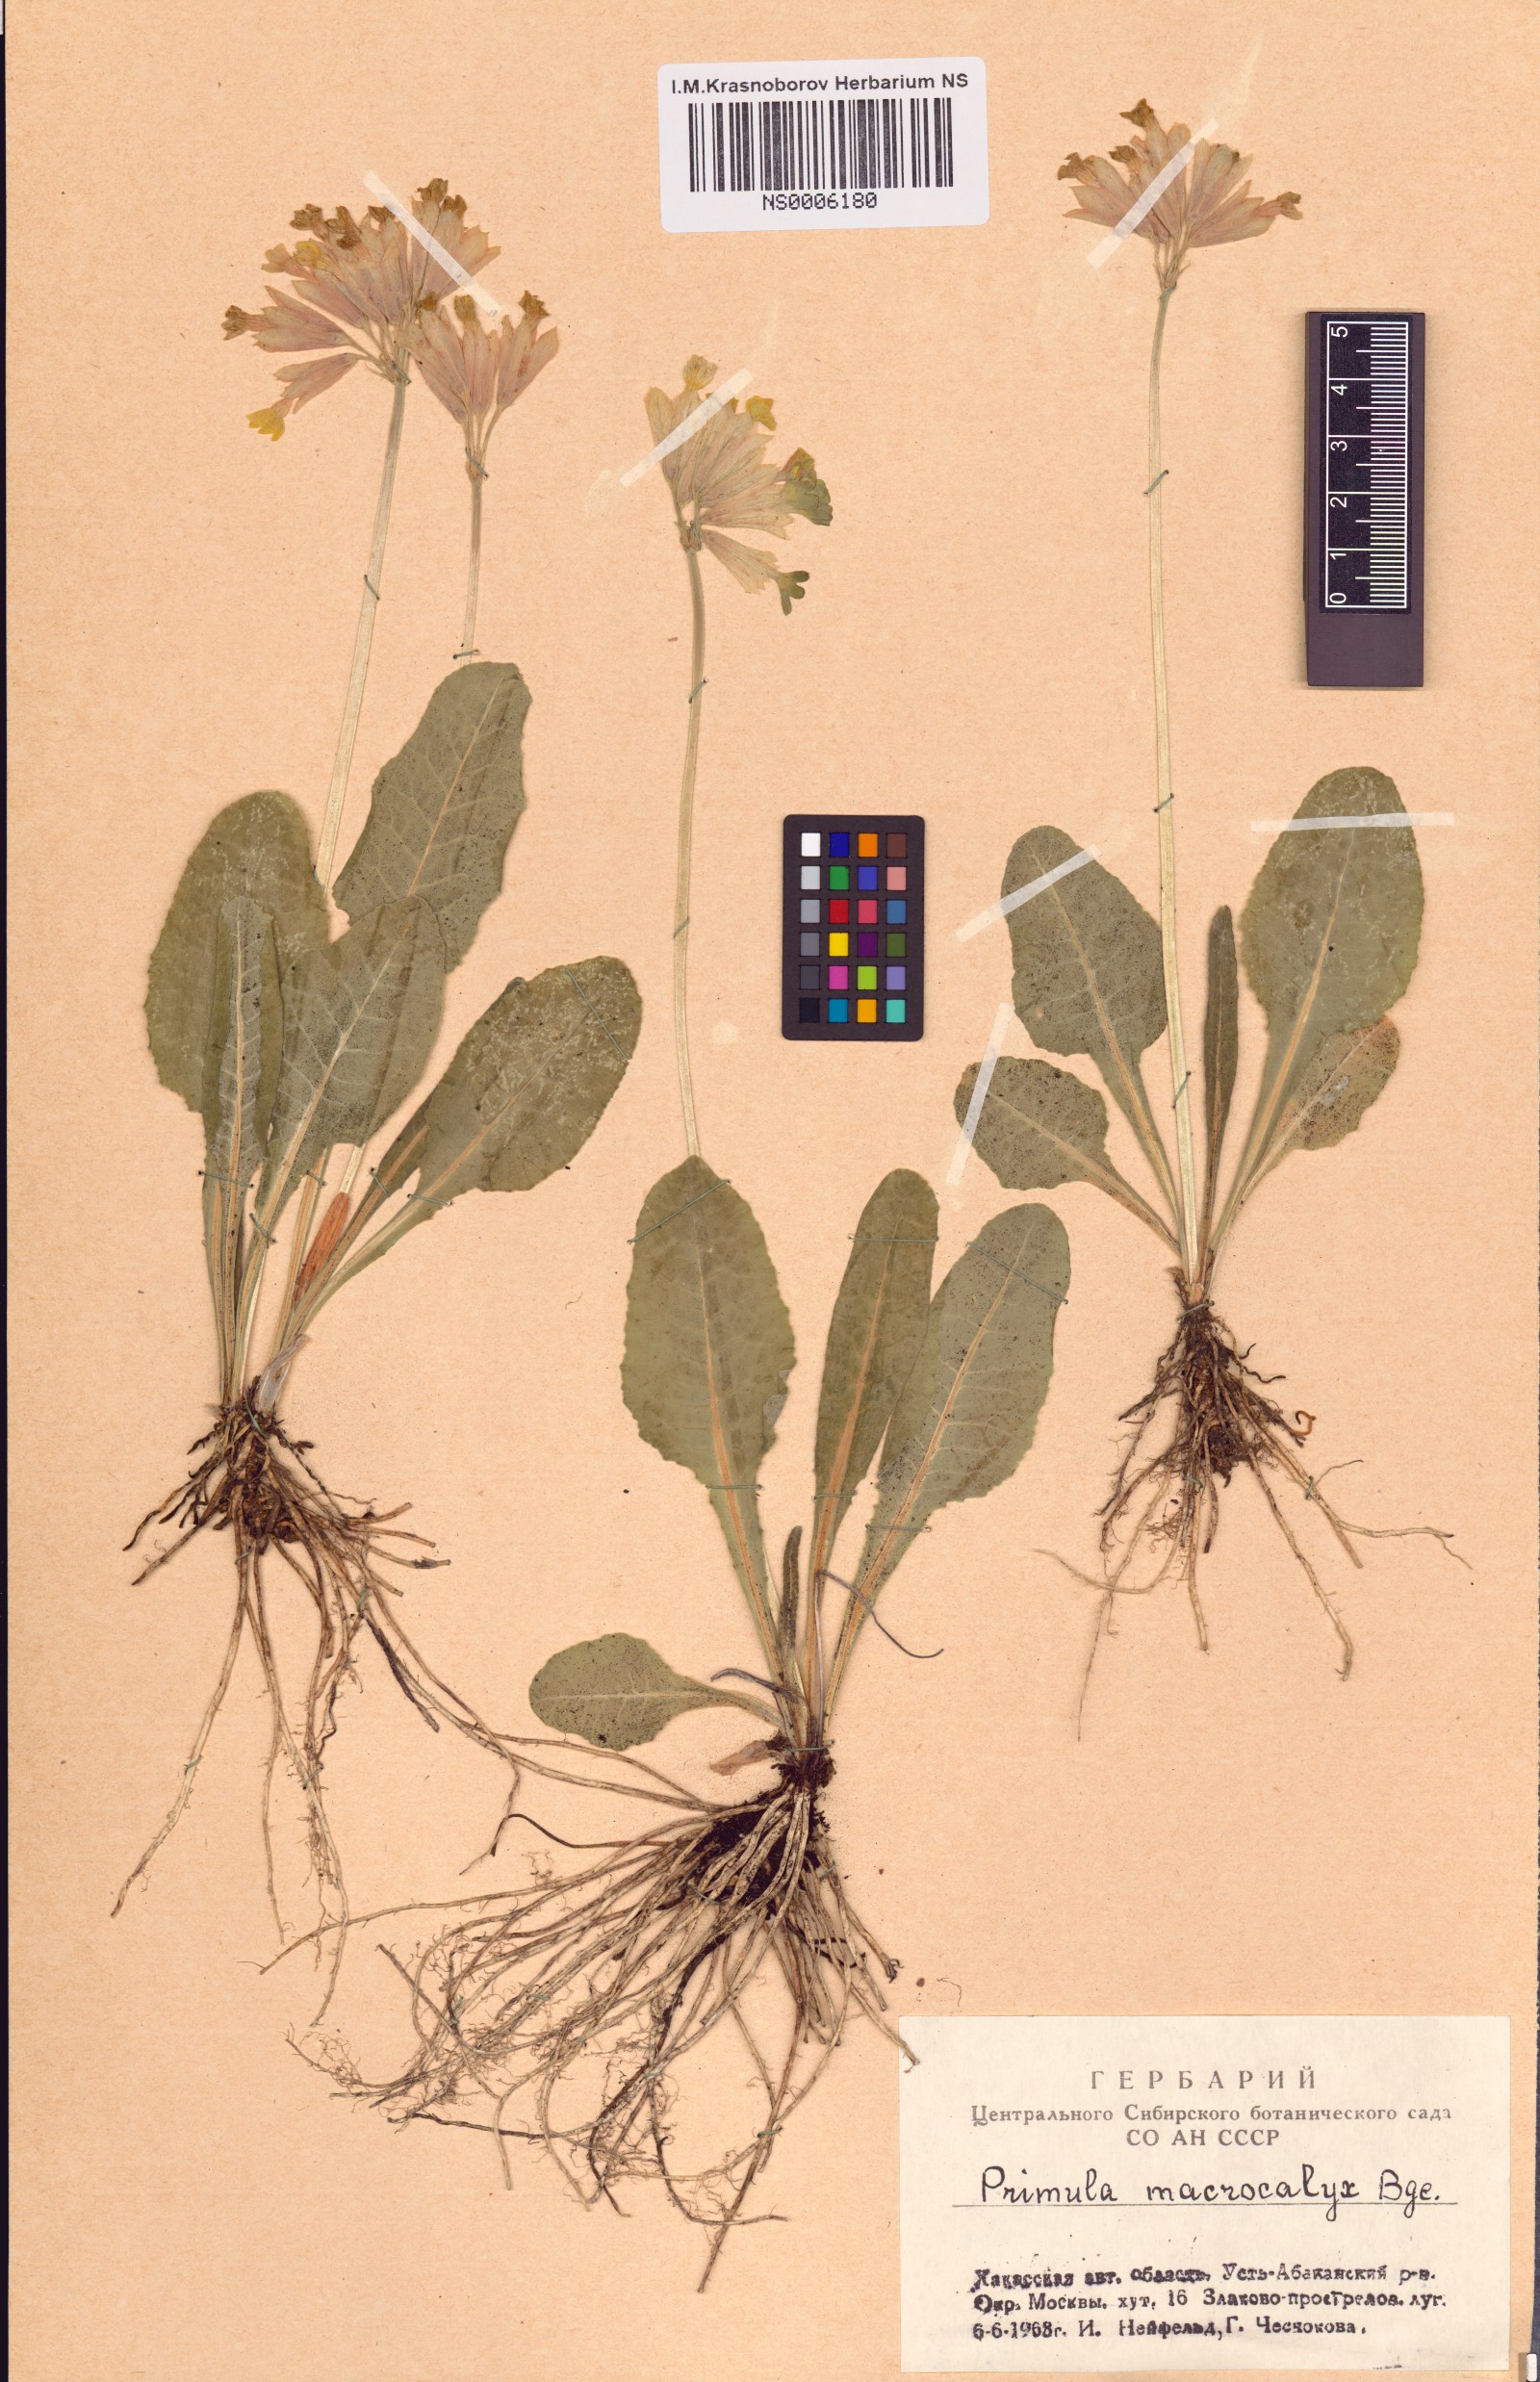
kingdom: Plantae
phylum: Tracheophyta
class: Magnoliopsida
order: Ericales
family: Primulaceae
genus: Primula
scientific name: Primula veris
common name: Cowslip
